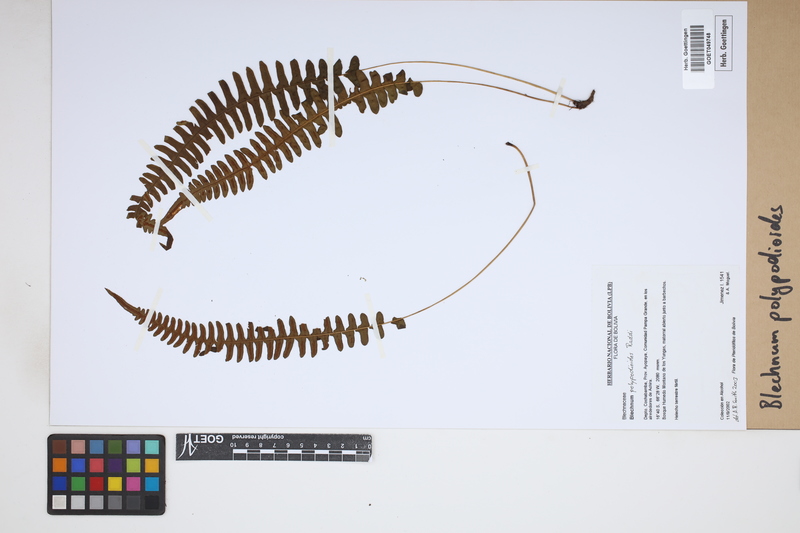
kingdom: Plantae
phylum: Tracheophyta
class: Polypodiopsida
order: Polypodiales
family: Blechnaceae
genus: Blechnum
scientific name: Blechnum polypodioides
